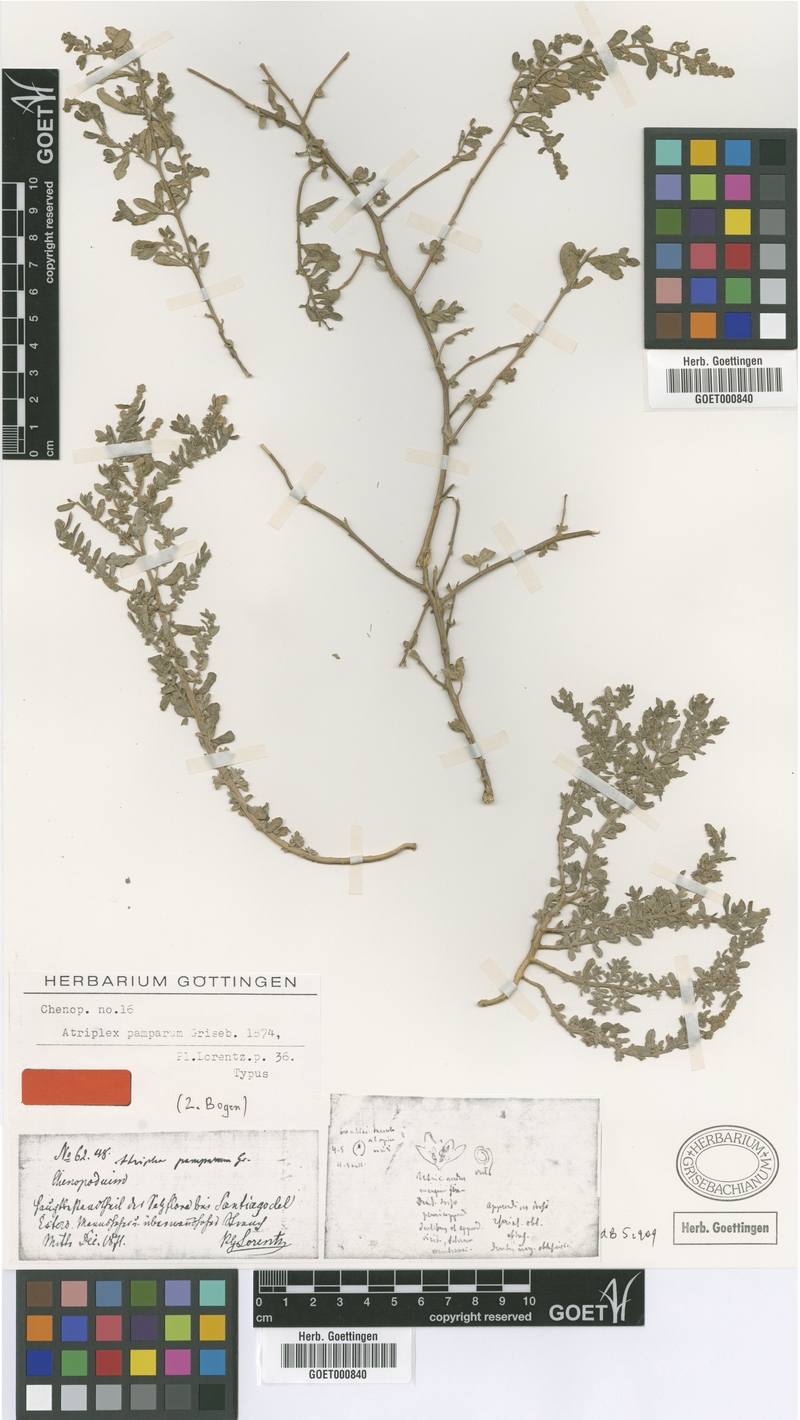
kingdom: Plantae
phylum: Tracheophyta
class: Magnoliopsida
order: Caryophyllales
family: Amaranthaceae
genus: Atriplex
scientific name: Atriplex pamparum
